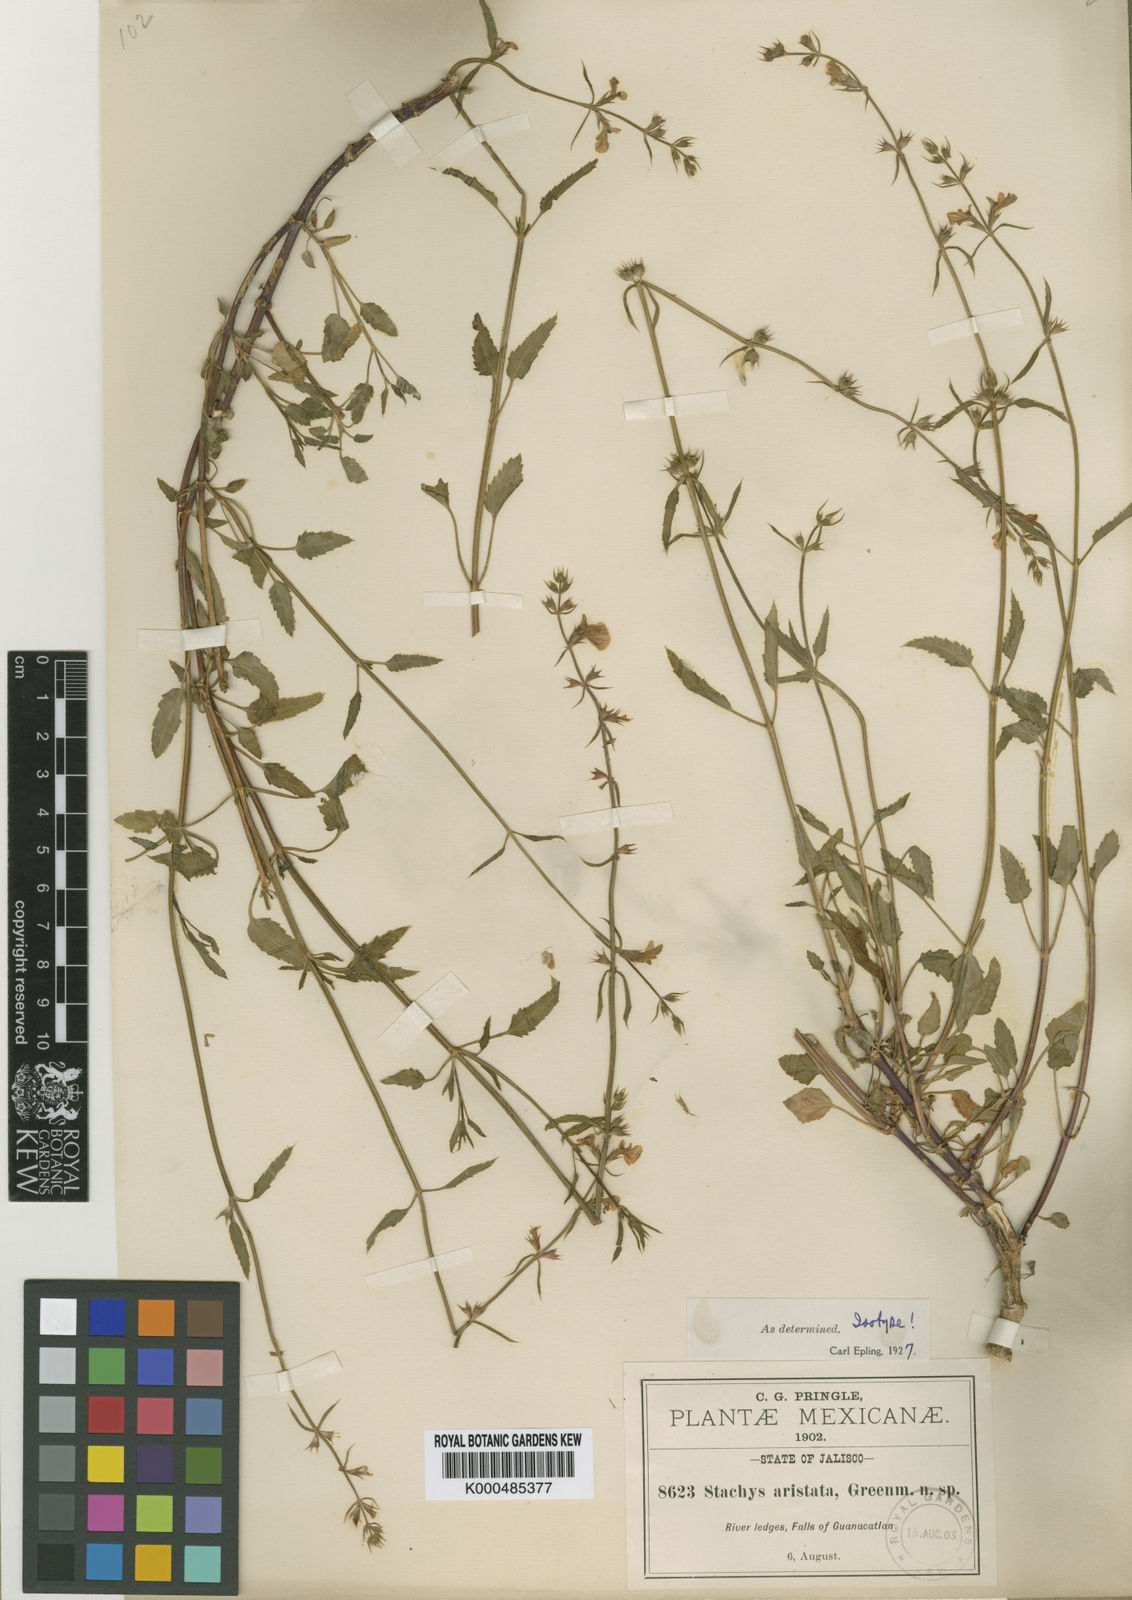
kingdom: Plantae
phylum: Tracheophyta
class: Magnoliopsida
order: Lamiales
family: Lamiaceae
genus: Stachys
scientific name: Stachys aristata
